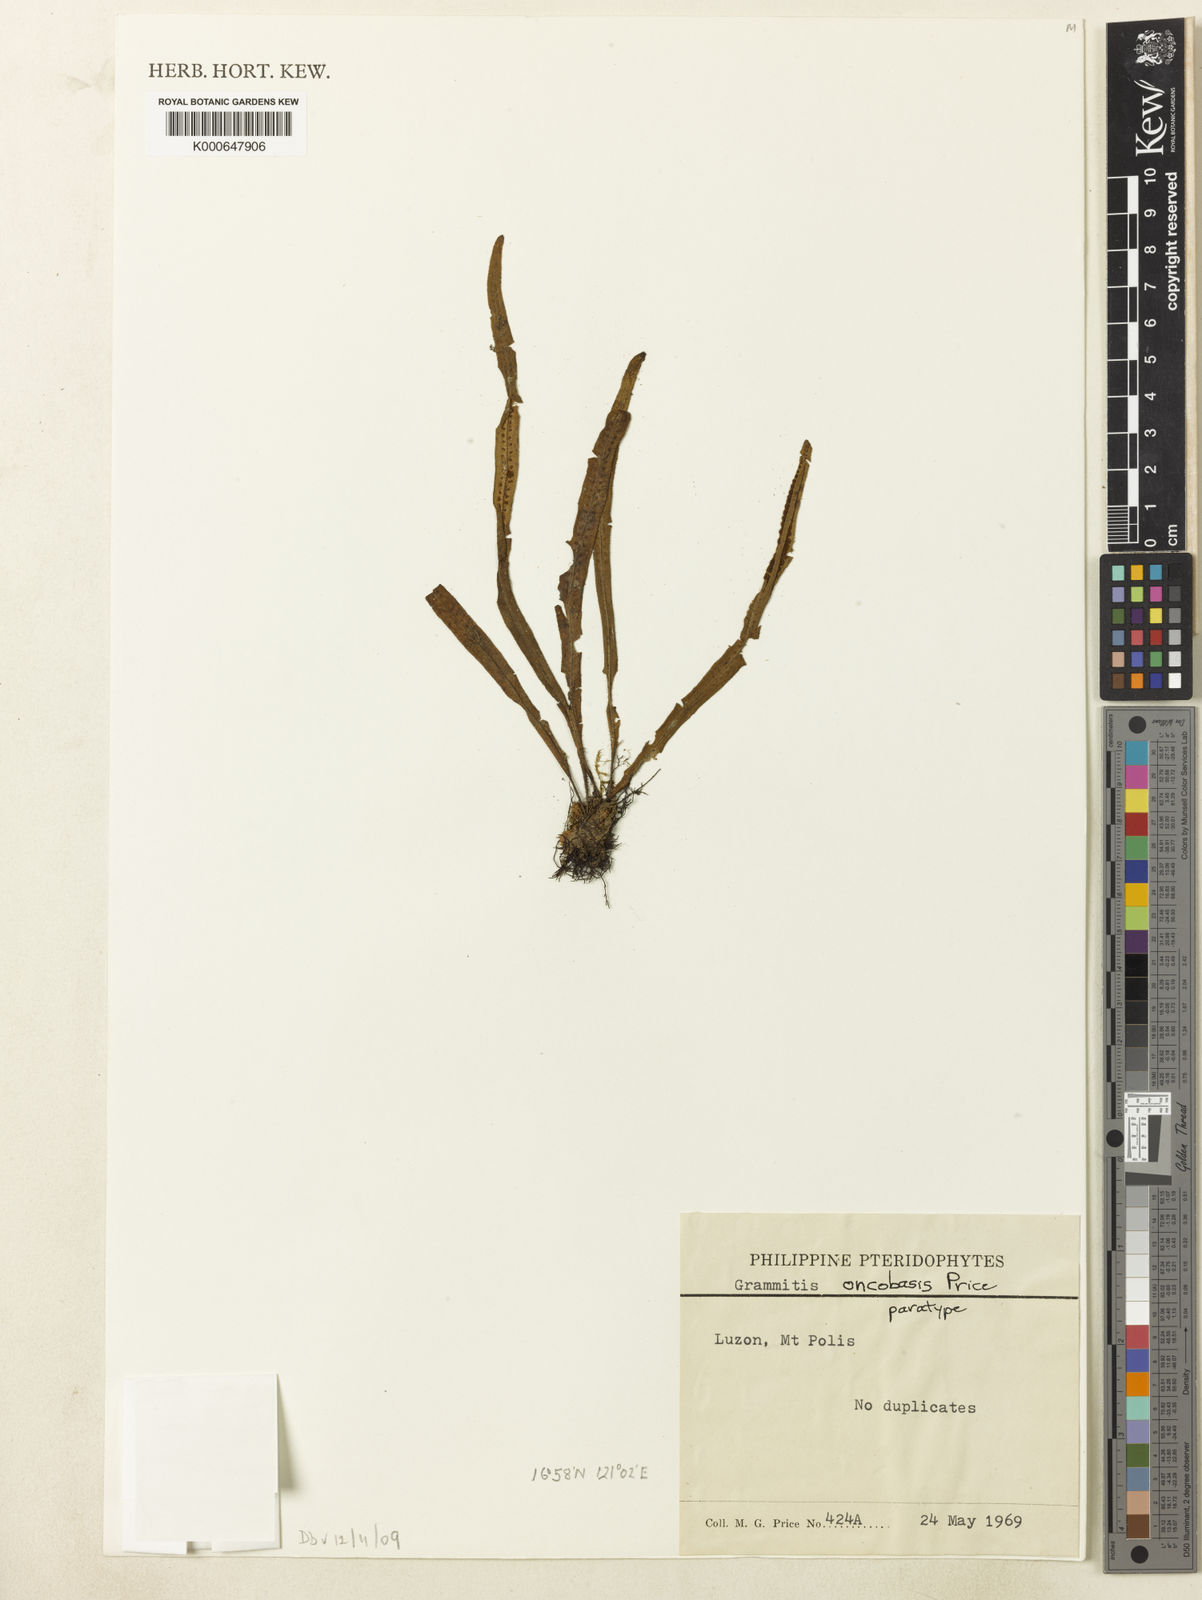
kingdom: Plantae
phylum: Tracheophyta
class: Polypodiopsida
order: Polypodiales
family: Polypodiaceae
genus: Oreogrammitis
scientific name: Oreogrammitis oncobasis
